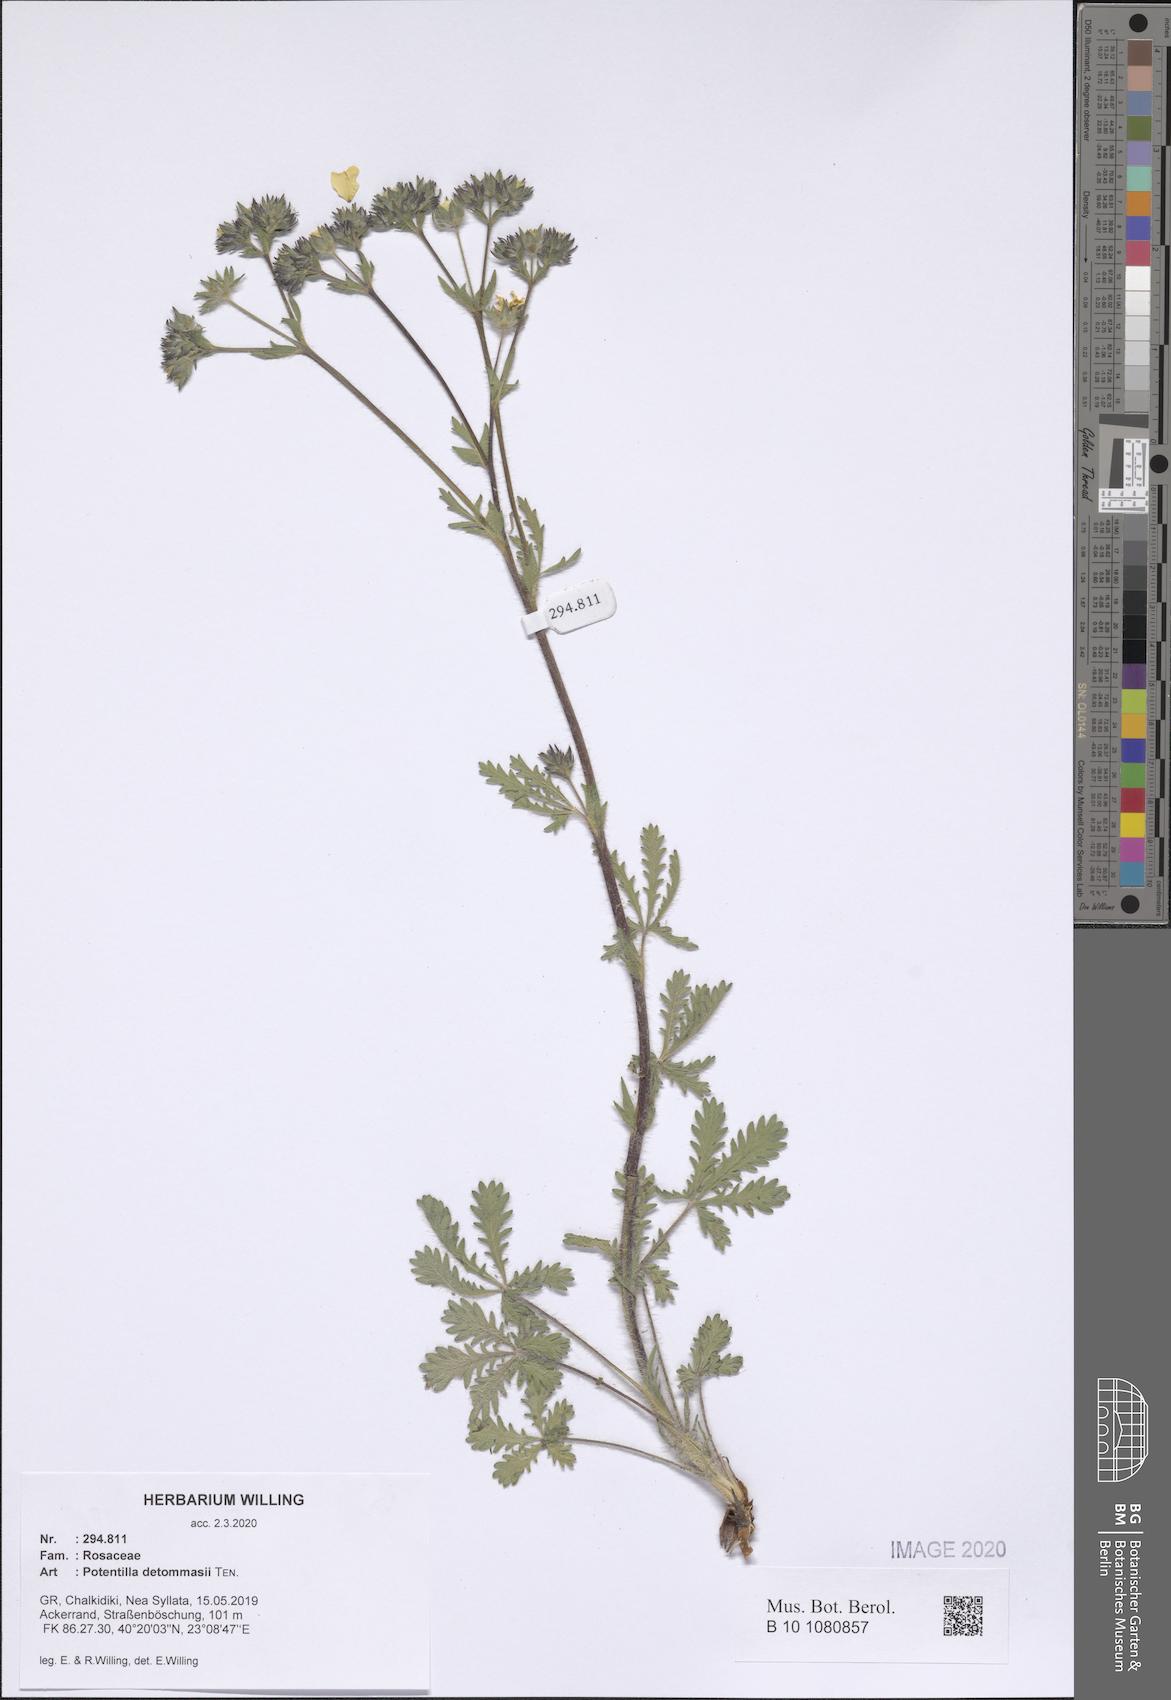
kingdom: Plantae
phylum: Tracheophyta
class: Magnoliopsida
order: Rosales
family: Rosaceae
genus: Potentilla
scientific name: Potentilla detommasii
